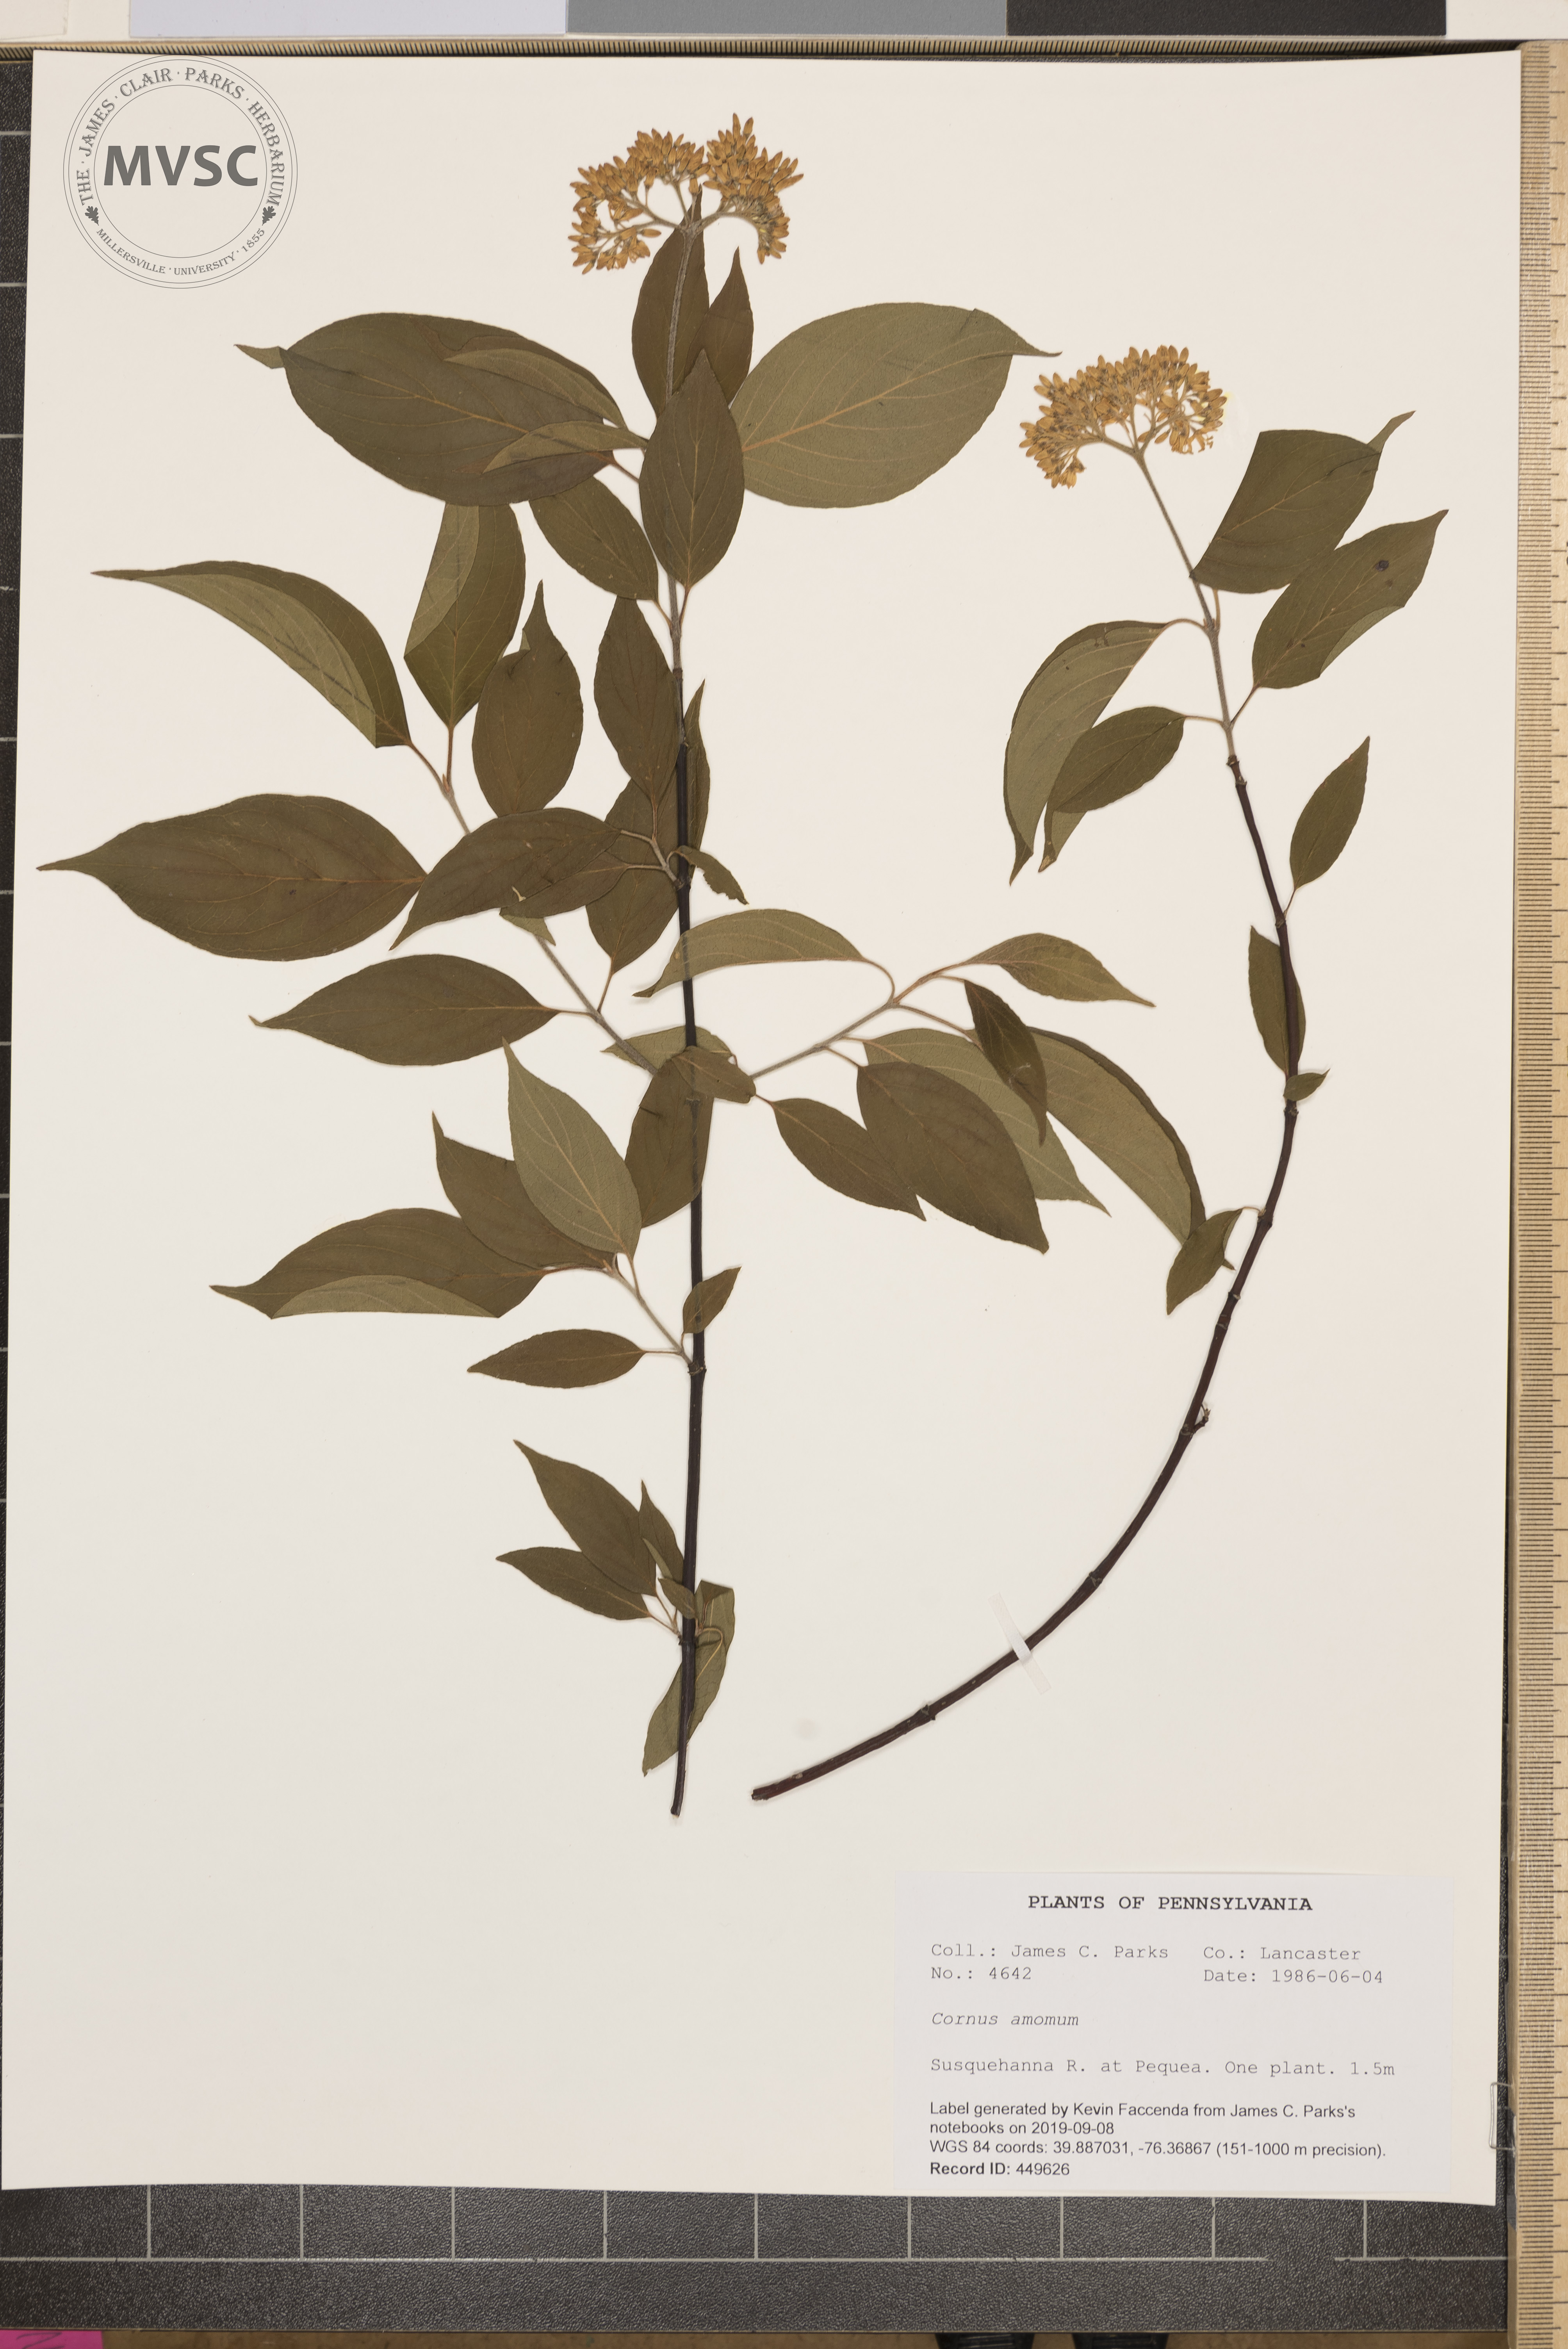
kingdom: Plantae
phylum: Tracheophyta
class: Magnoliopsida
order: Cornales
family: Cornaceae
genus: Cornus
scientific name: Cornus amomum
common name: Silky dogwood
